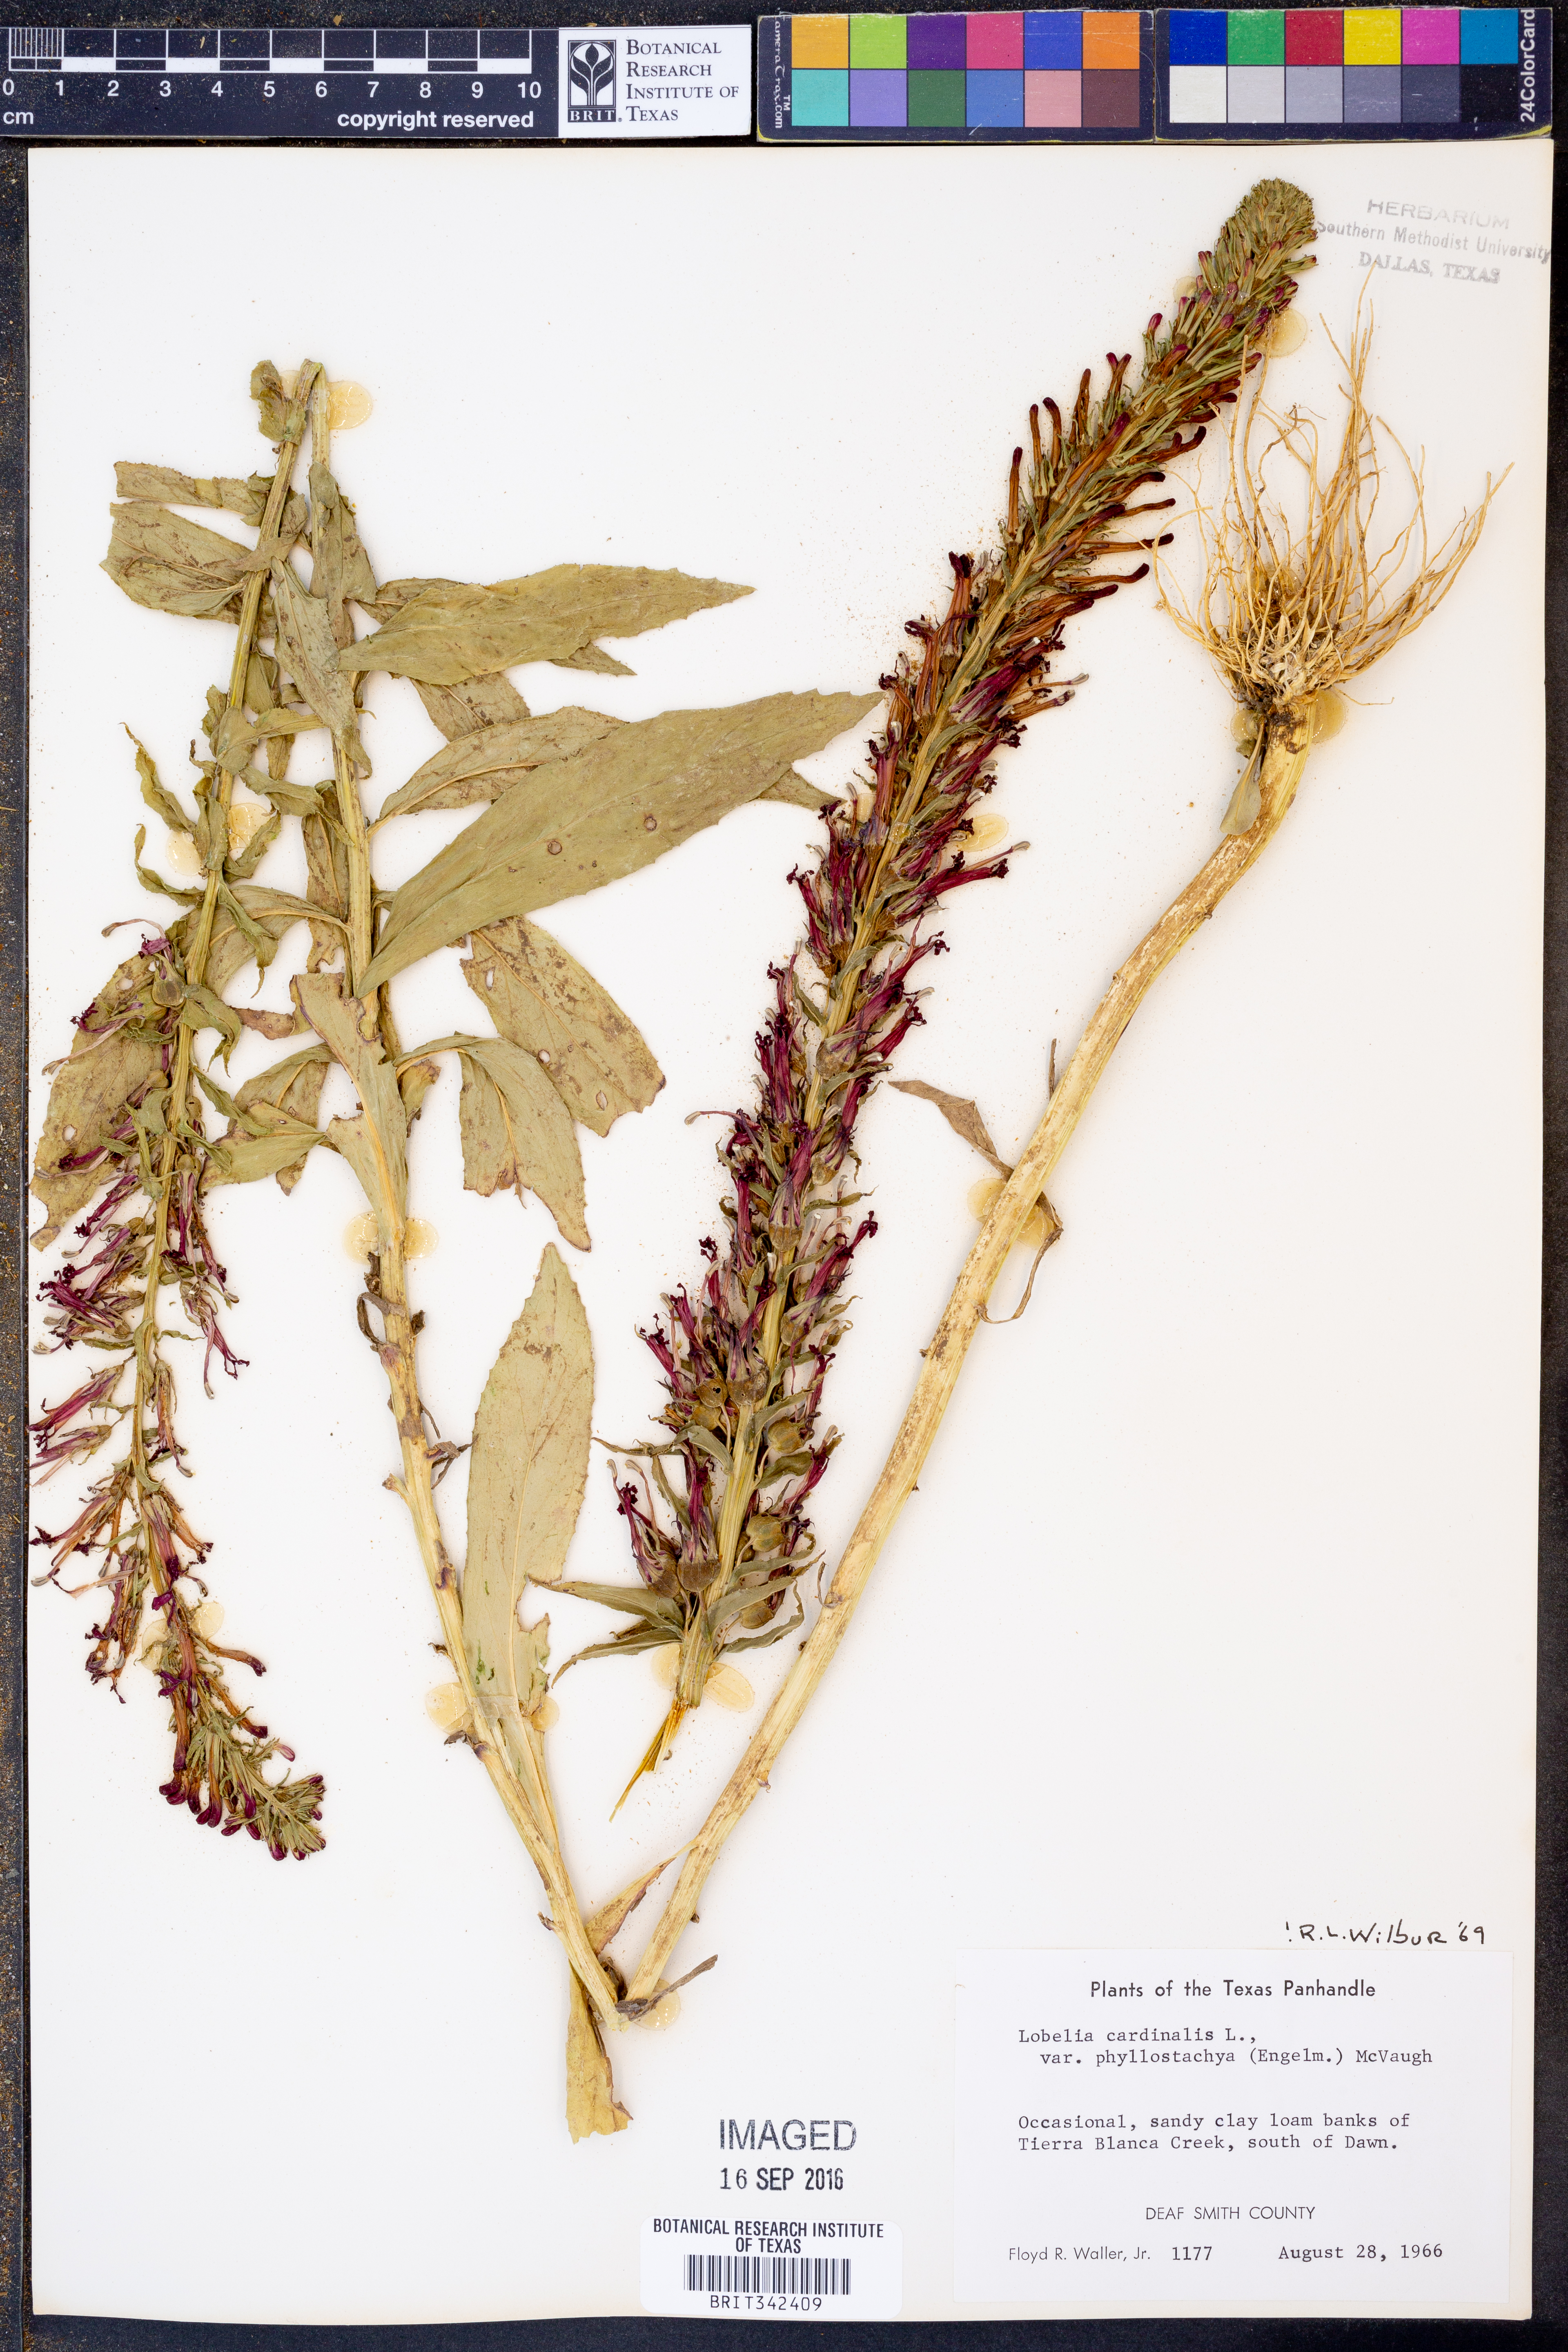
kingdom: Plantae
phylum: Tracheophyta
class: Magnoliopsida
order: Asterales
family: Campanulaceae
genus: Lobelia
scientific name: Lobelia cardinalis
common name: Cardinal flower
